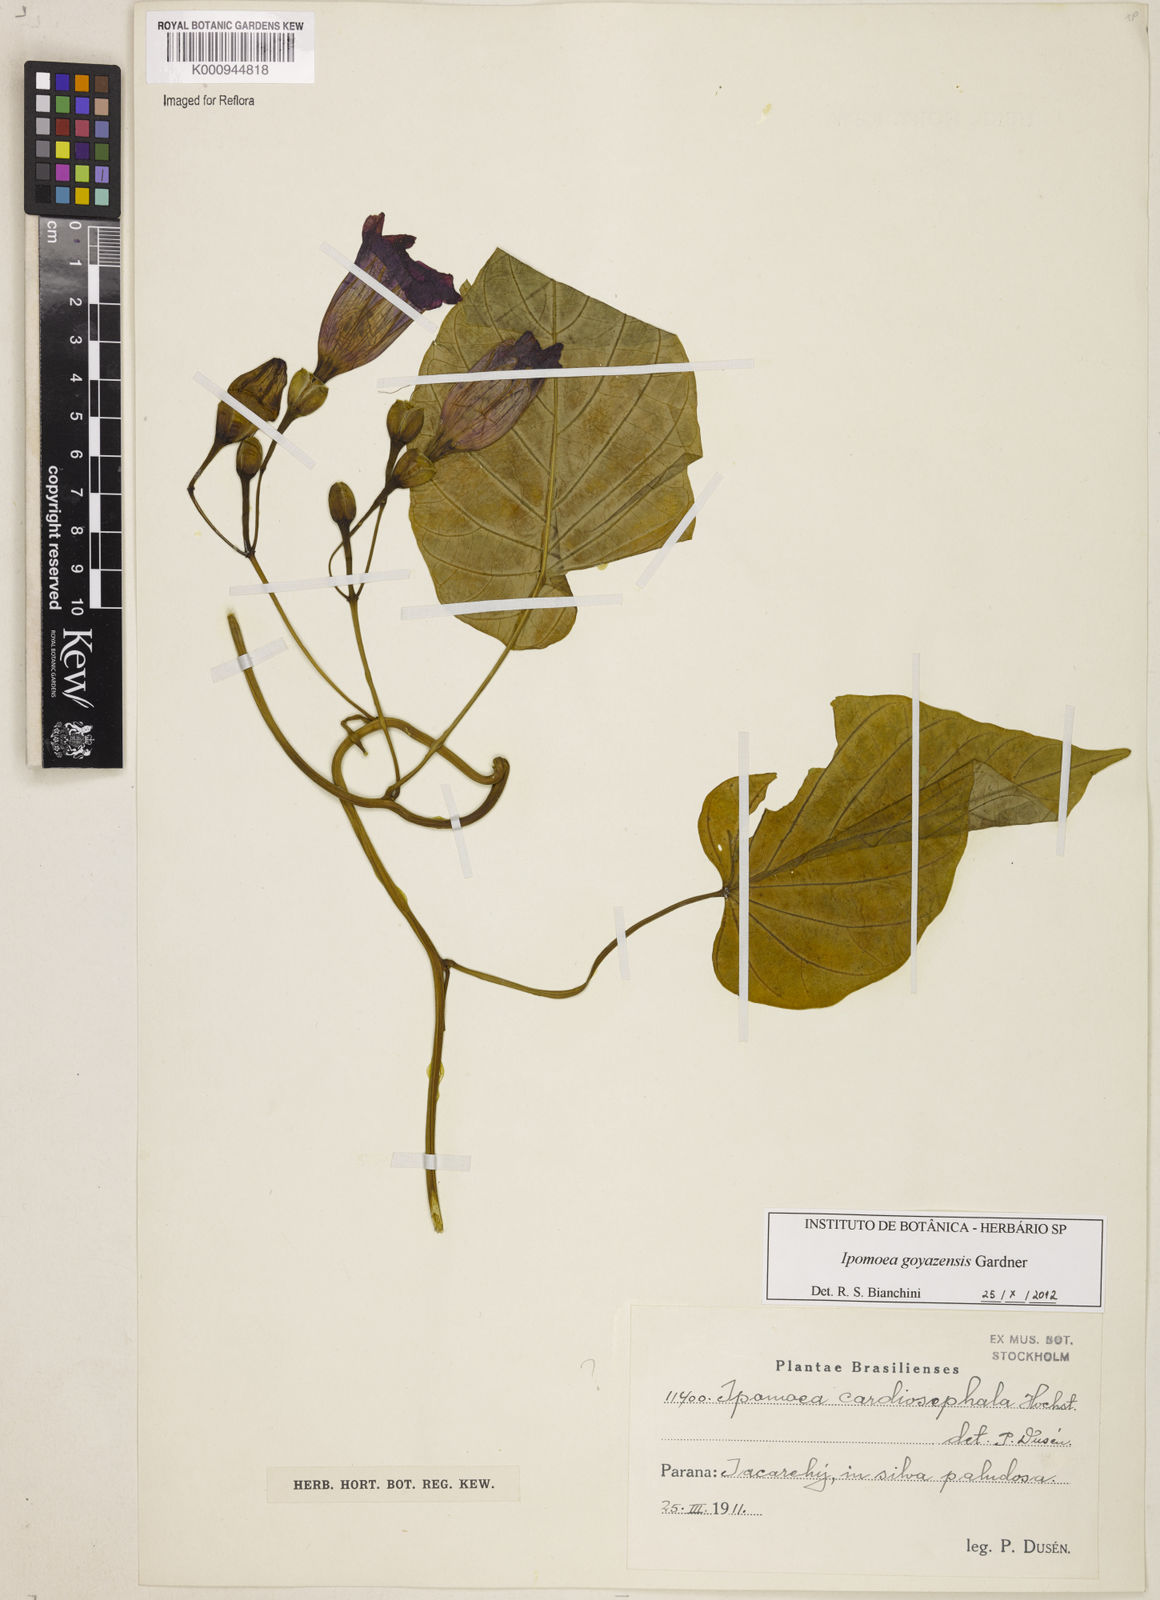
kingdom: Plantae
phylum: Tracheophyta
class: Magnoliopsida
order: Solanales
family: Convolvulaceae
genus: Ipomoea
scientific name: Ipomoea goyazensis
